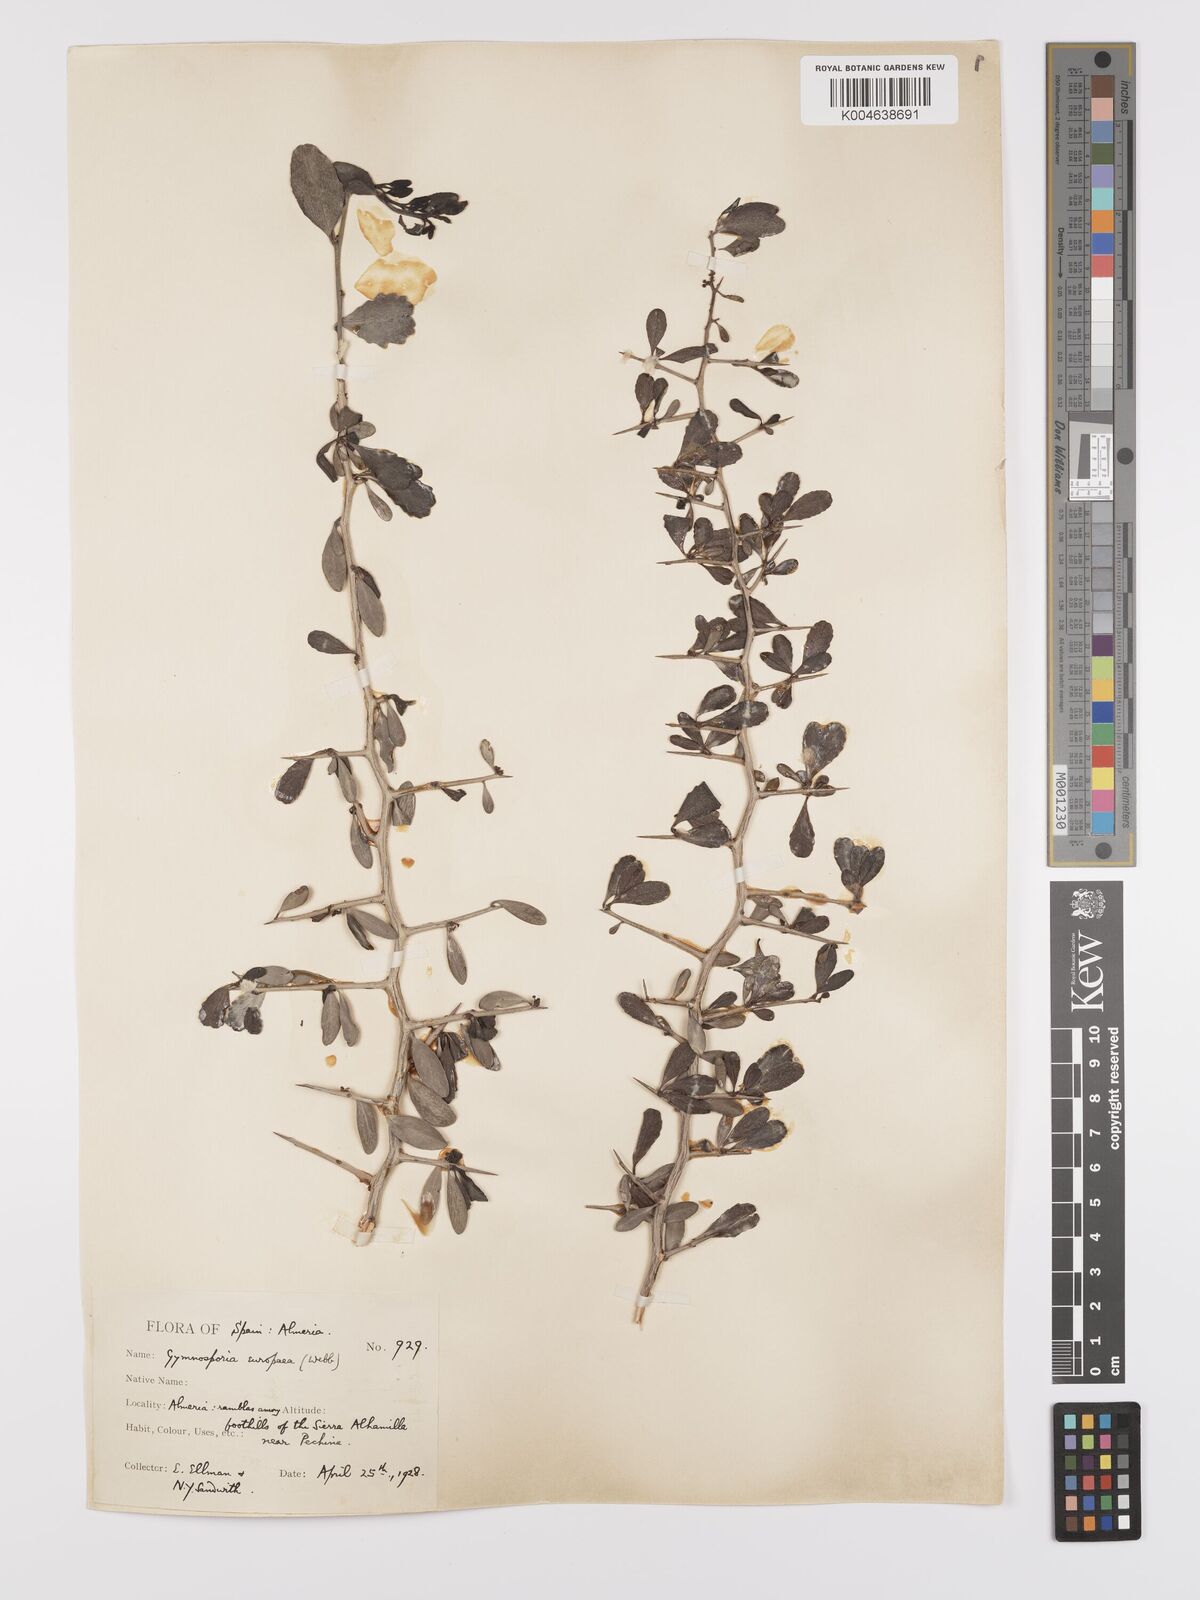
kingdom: Plantae
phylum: Tracheophyta
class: Magnoliopsida
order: Celastrales
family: Celastraceae
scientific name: Celastraceae
